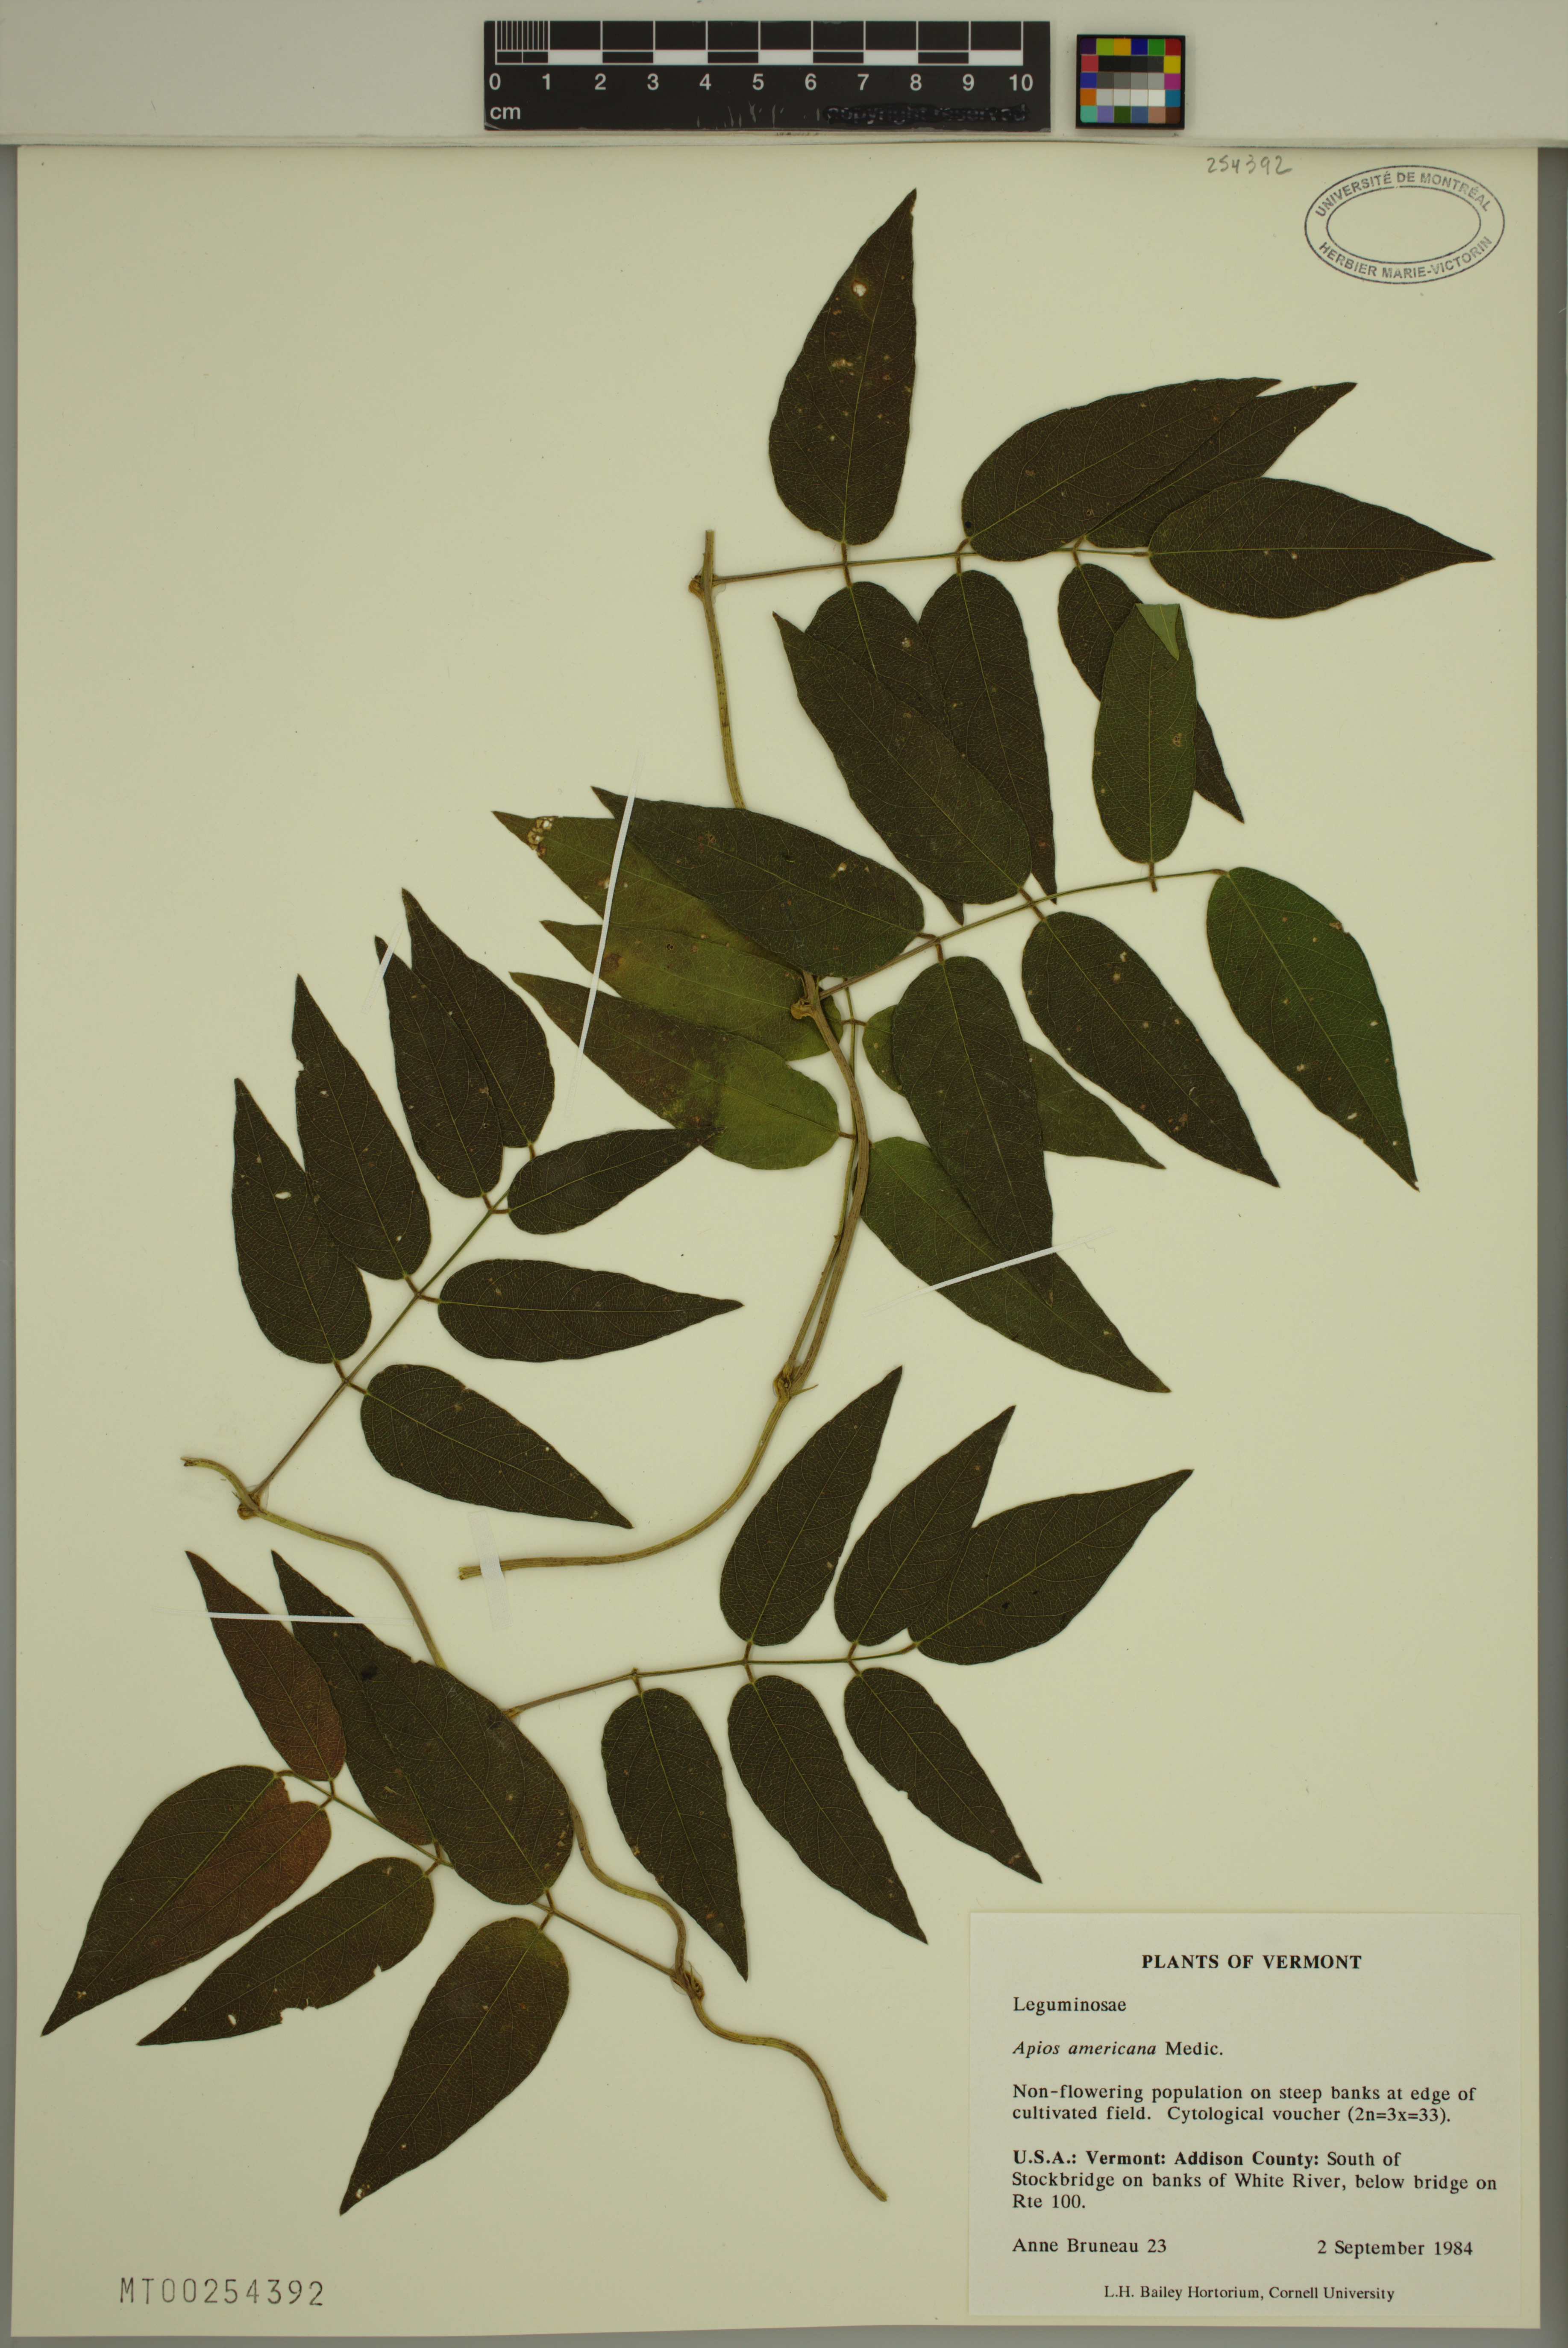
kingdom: Plantae
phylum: Tracheophyta
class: Magnoliopsida
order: Fabales
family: Fabaceae
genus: Apios
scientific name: Apios americana
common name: American potato-bean
